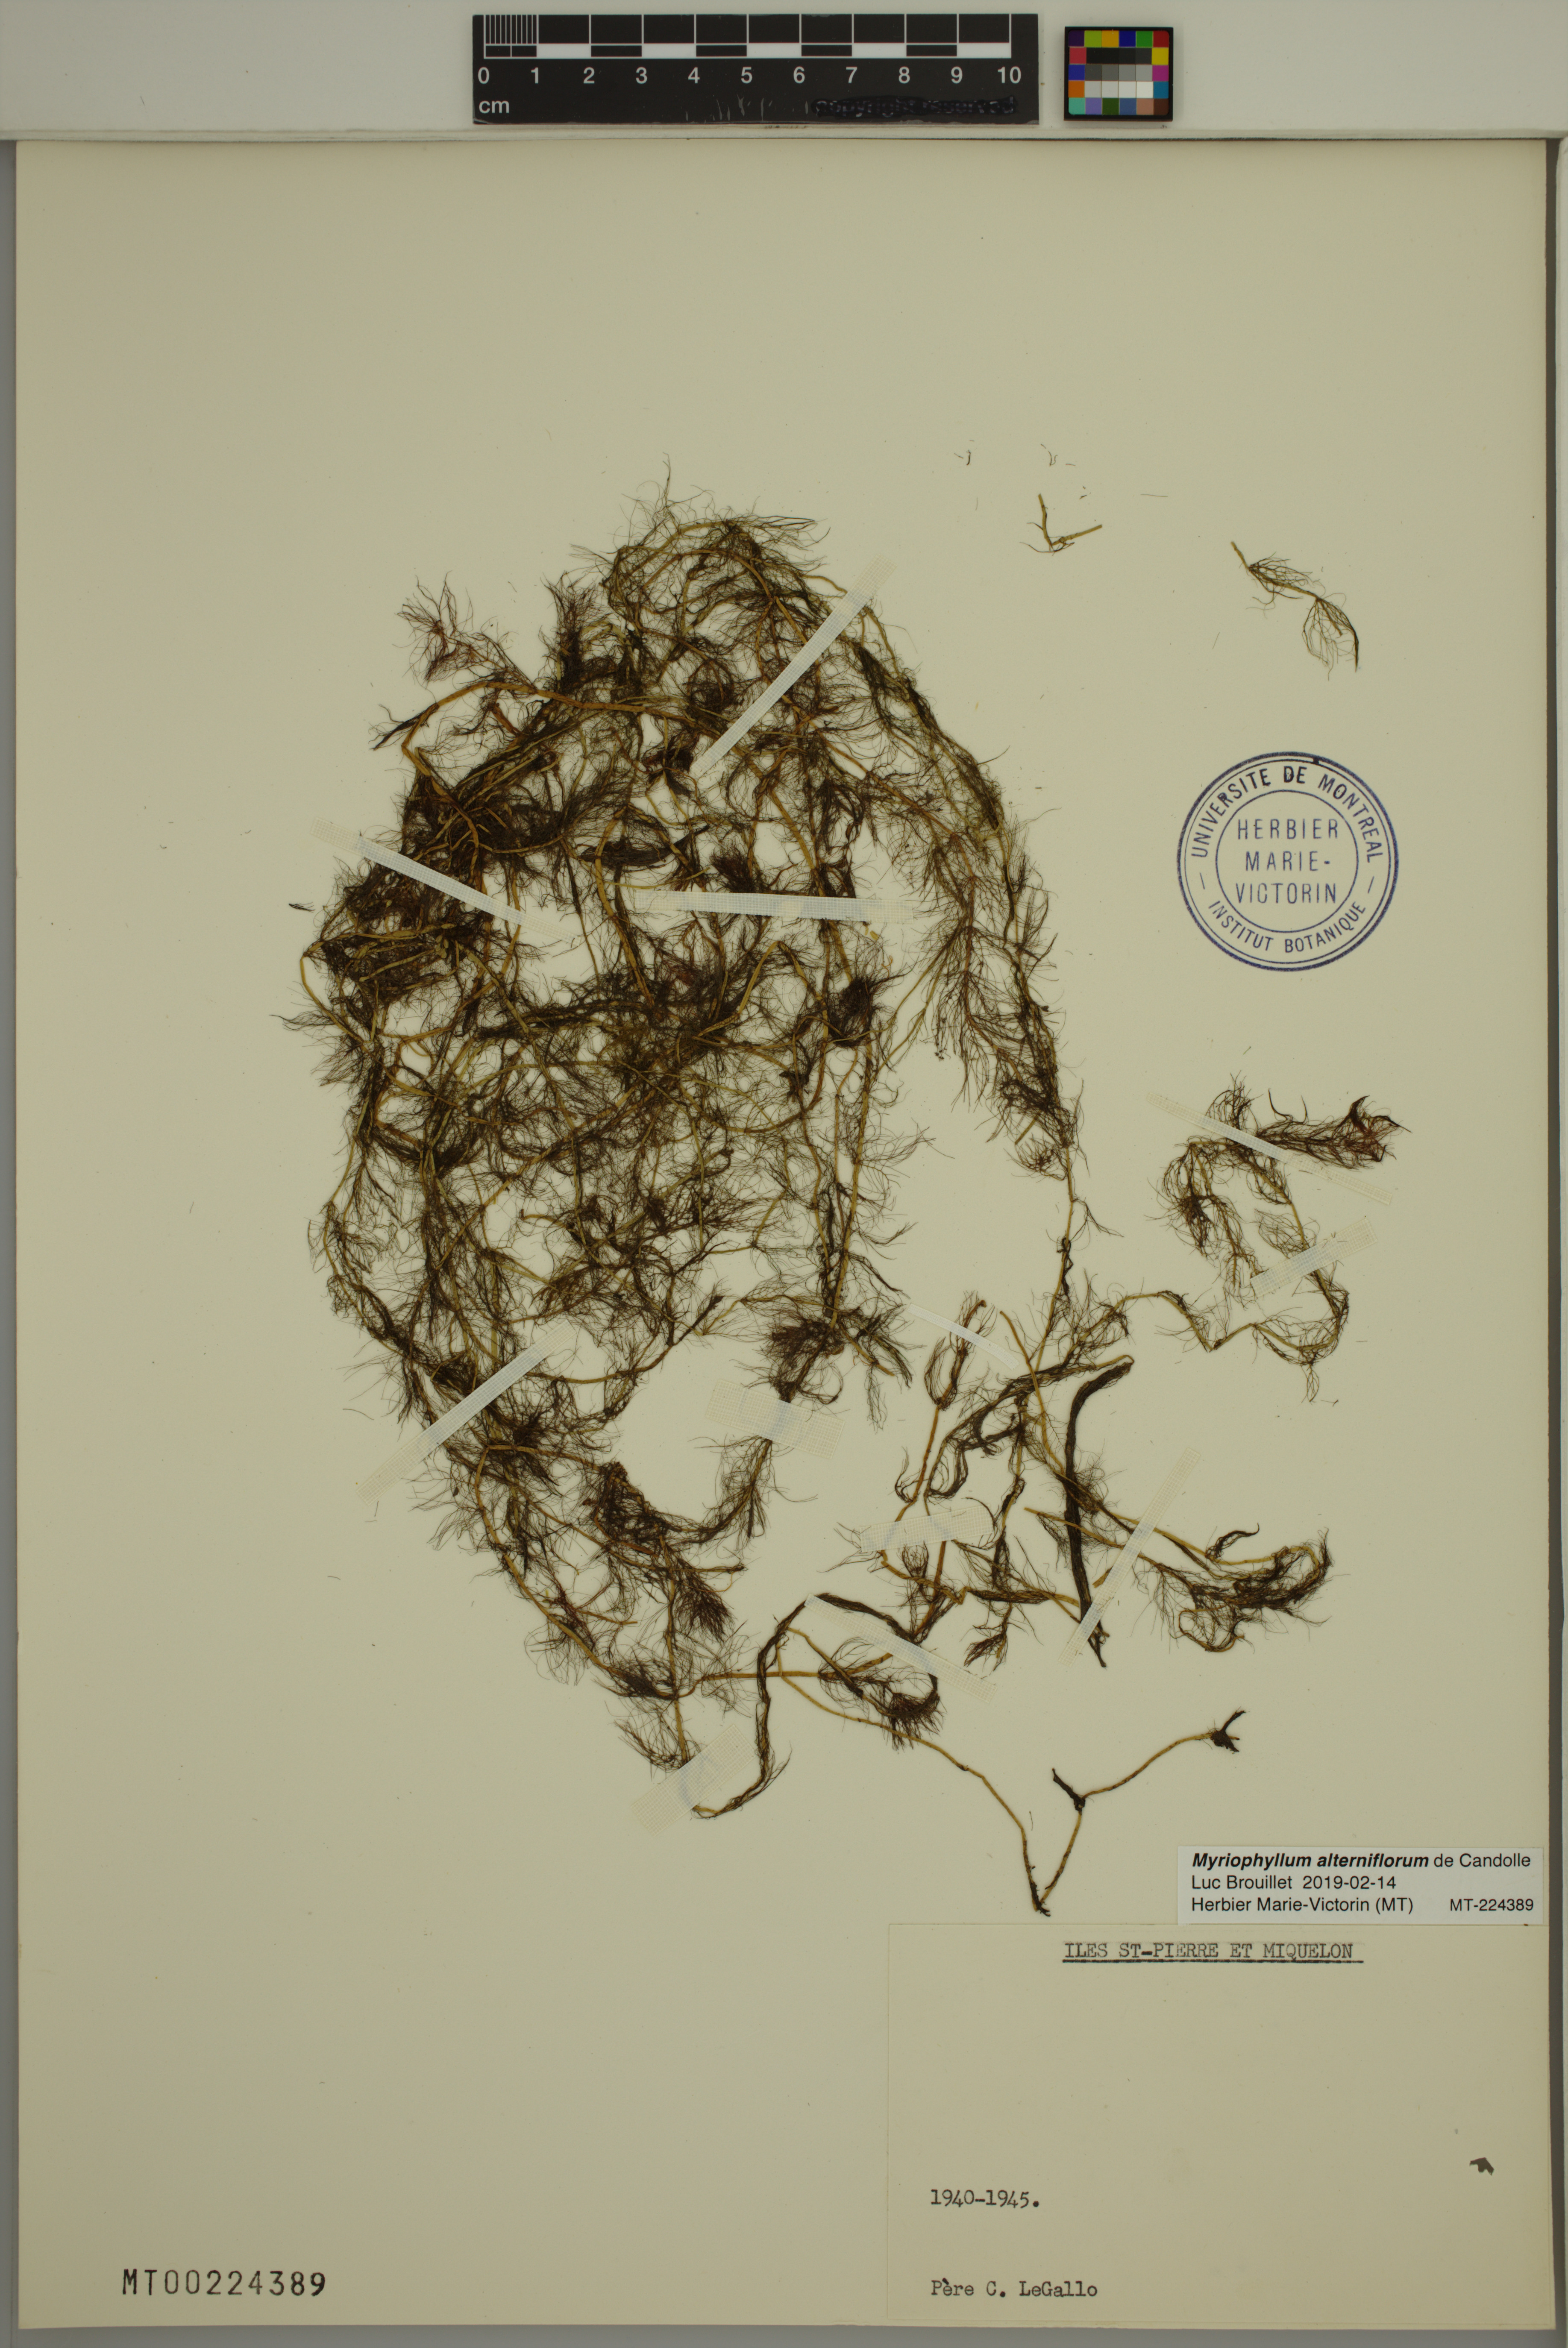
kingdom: Plantae
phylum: Tracheophyta
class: Magnoliopsida
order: Saxifragales
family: Haloragaceae
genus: Myriophyllum
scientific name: Myriophyllum alterniflorum
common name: Alternate water-milfoil
